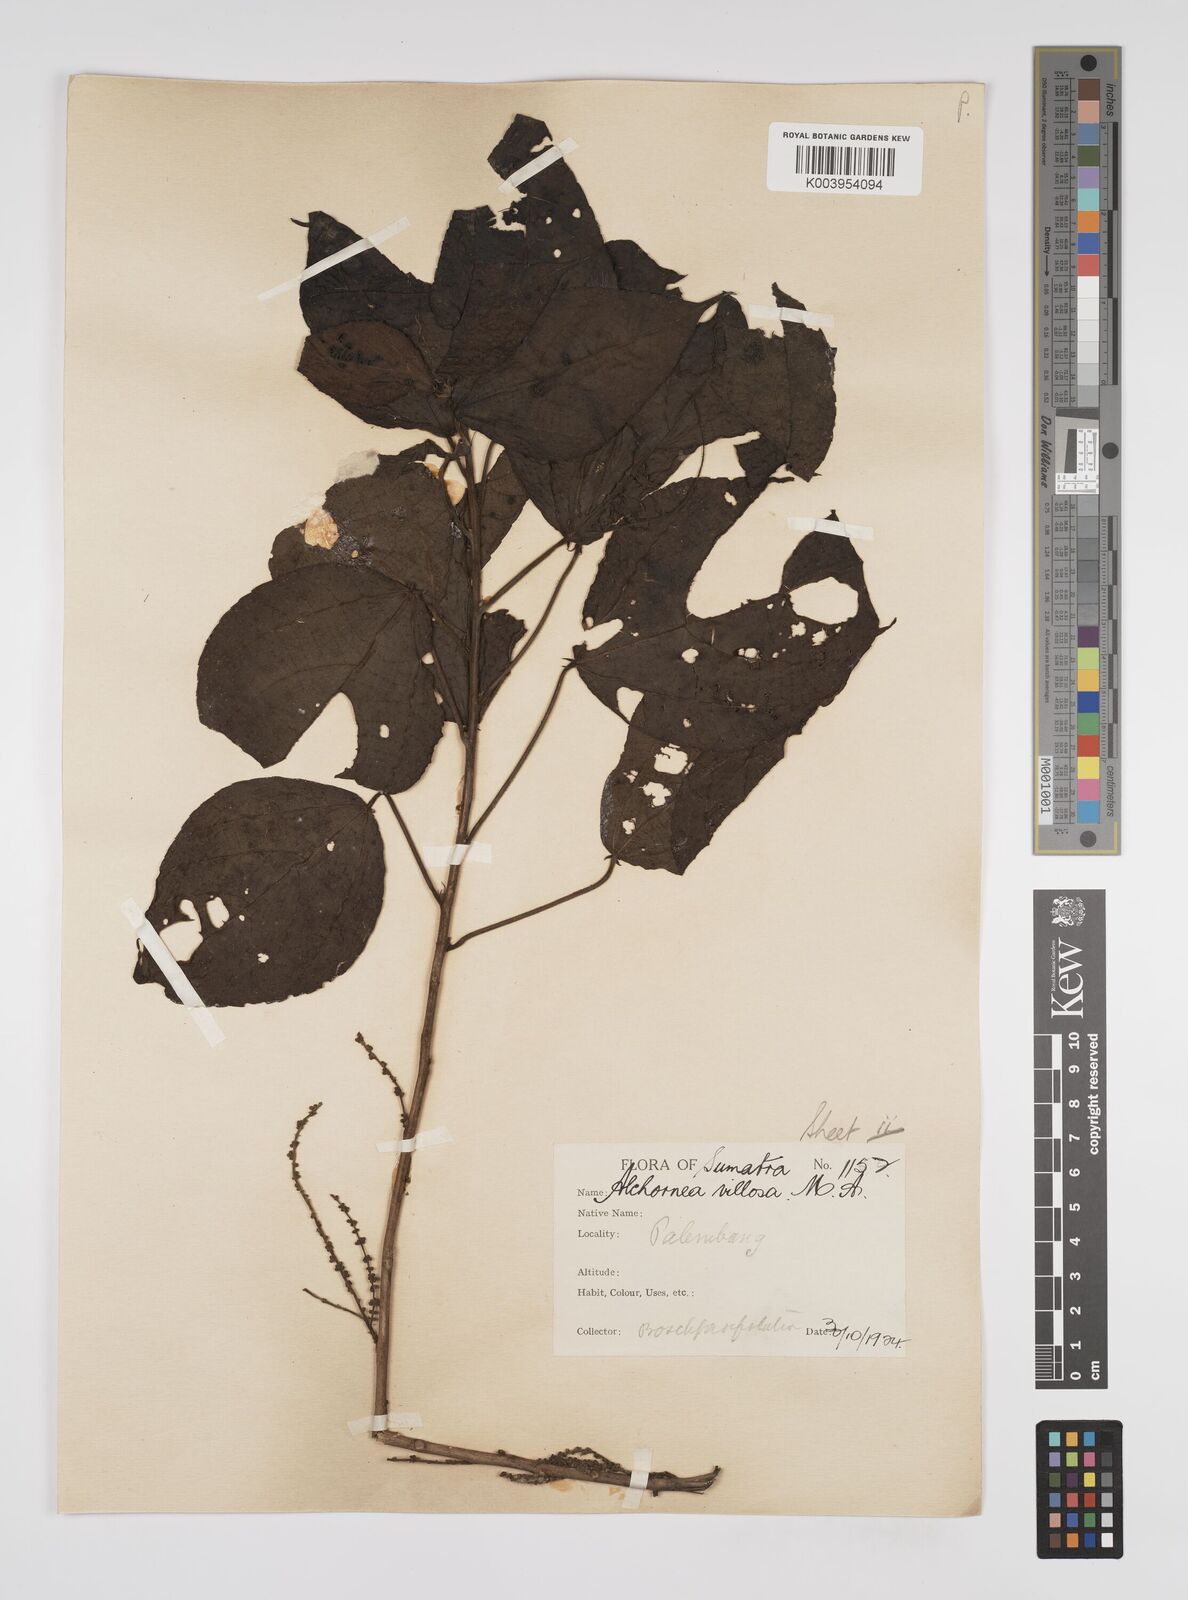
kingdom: Plantae
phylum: Tracheophyta
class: Magnoliopsida
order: Malpighiales
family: Euphorbiaceae
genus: Alchornea
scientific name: Alchornea tiliifolia
